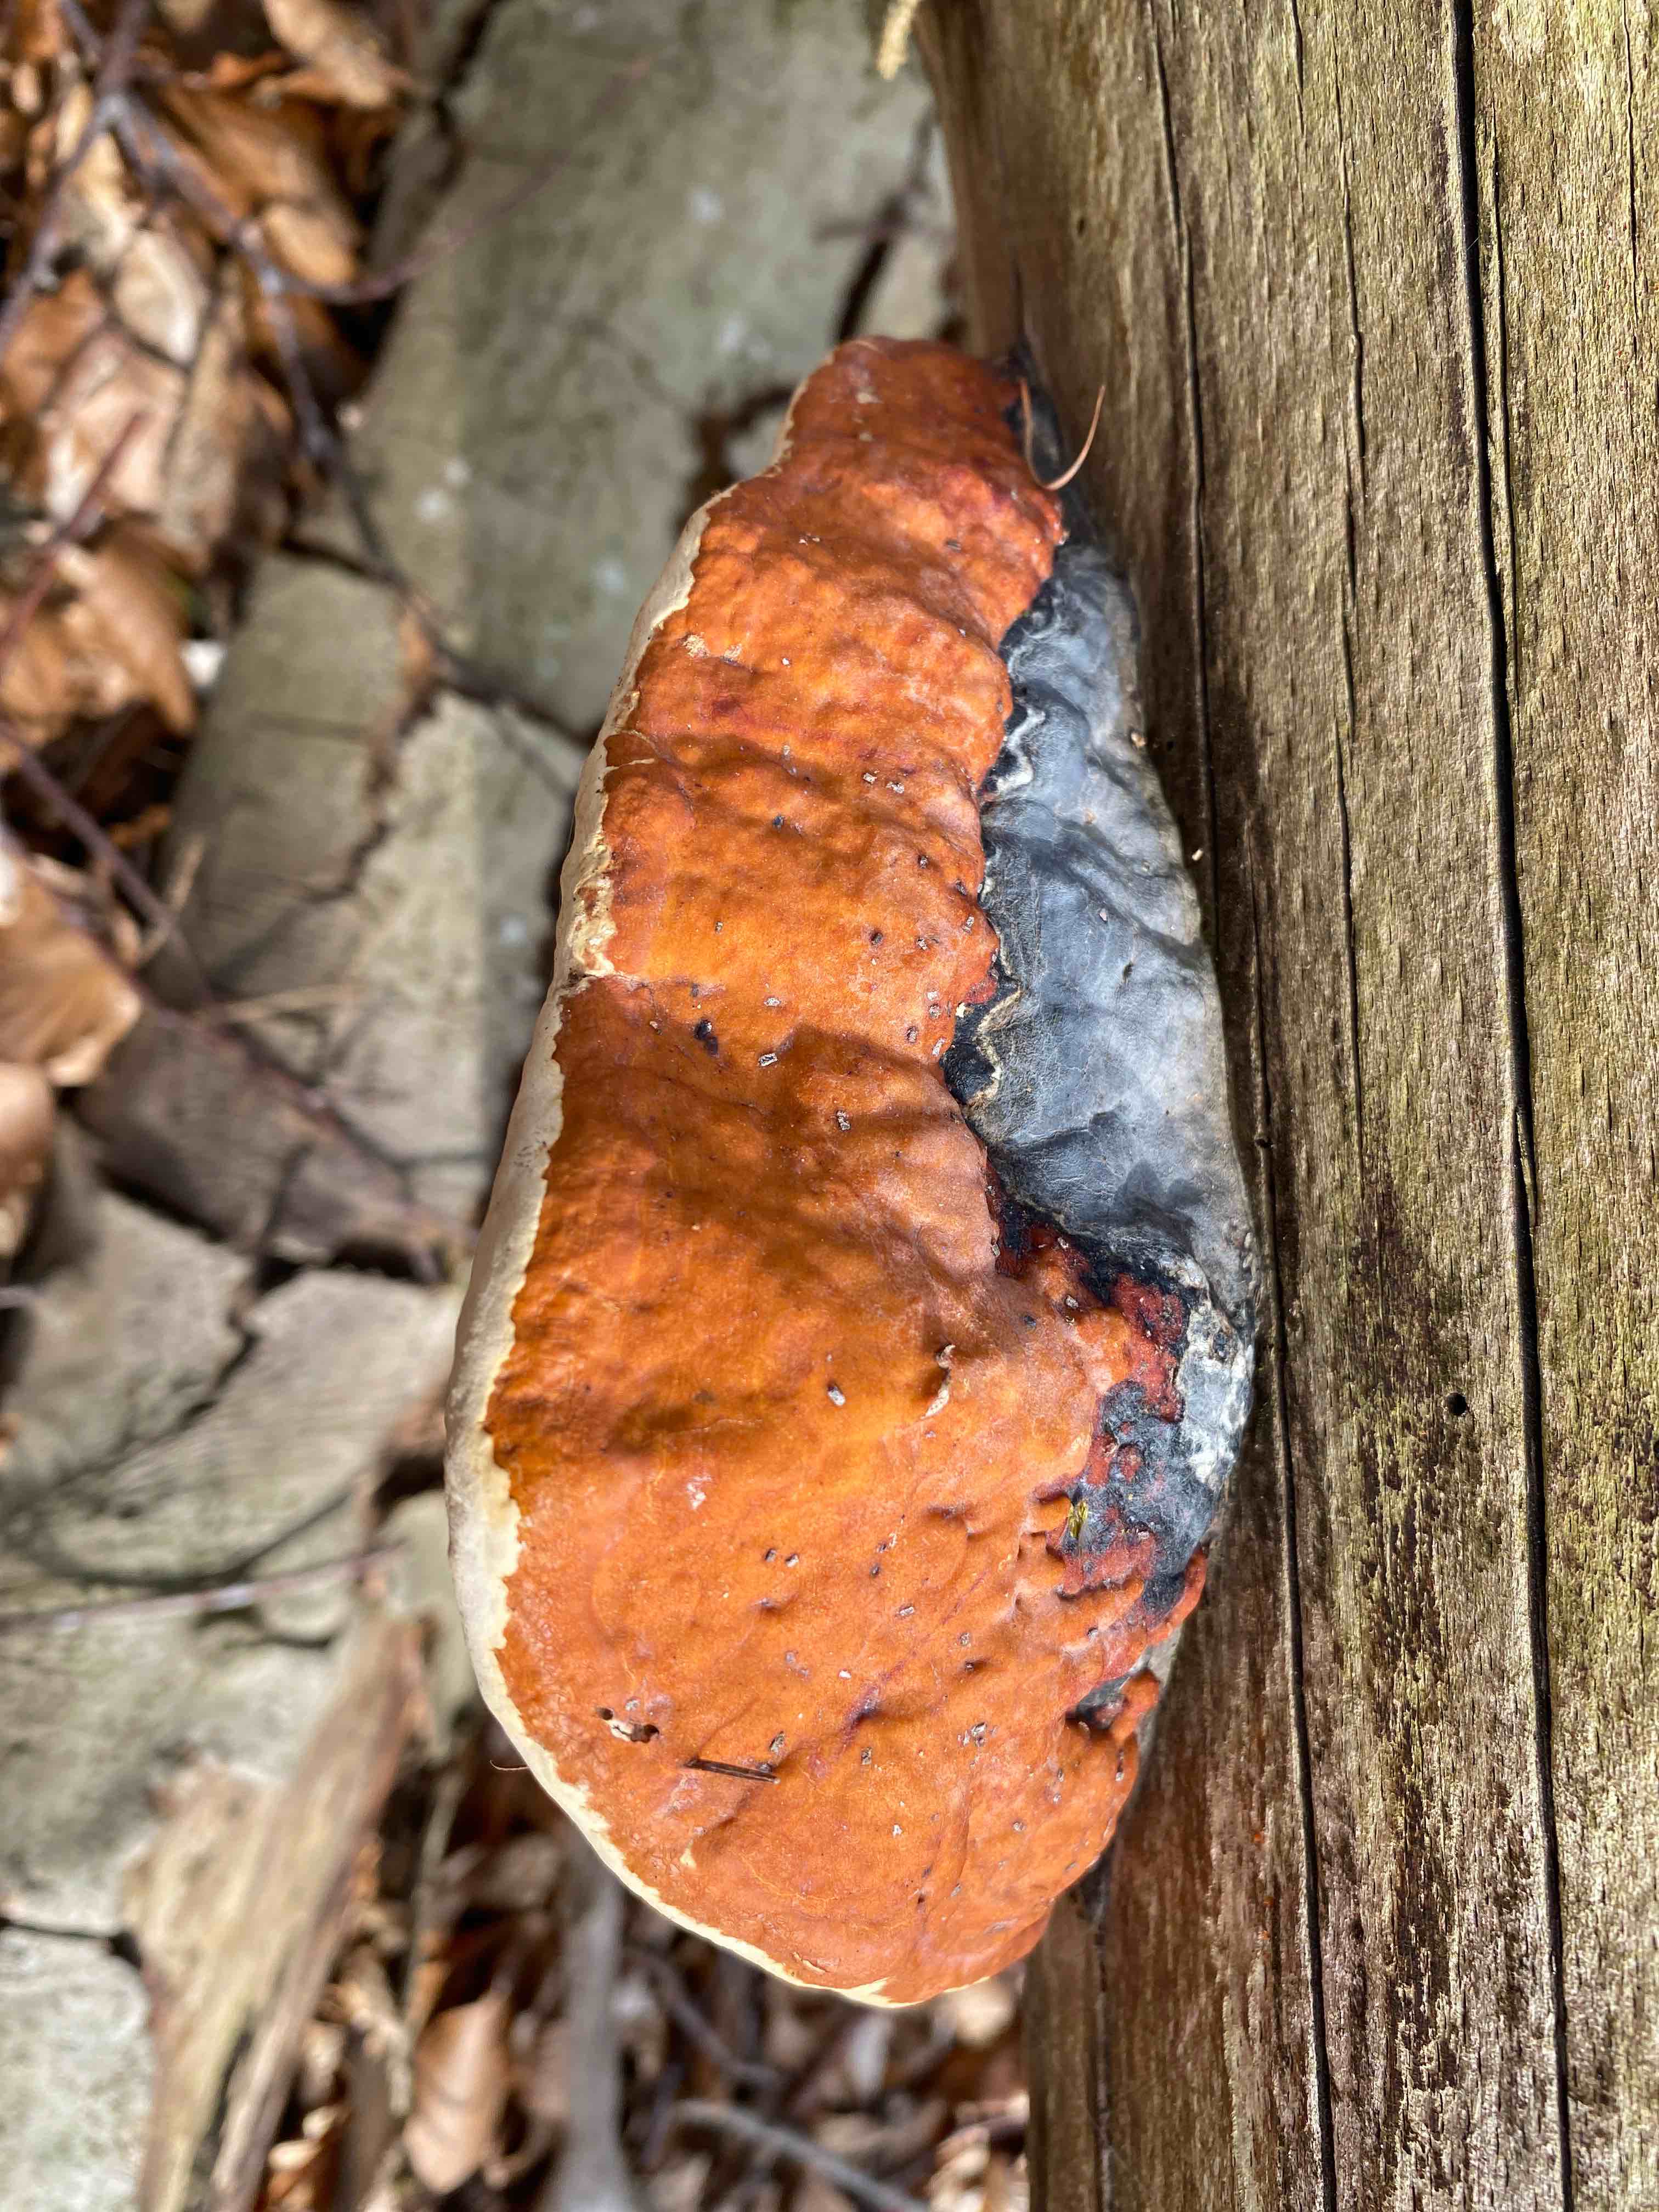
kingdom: Fungi
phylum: Basidiomycota
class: Agaricomycetes
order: Polyporales
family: Fomitopsidaceae
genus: Fomitopsis
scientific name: Fomitopsis pinicola
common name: randbæltet hovporesvamp
